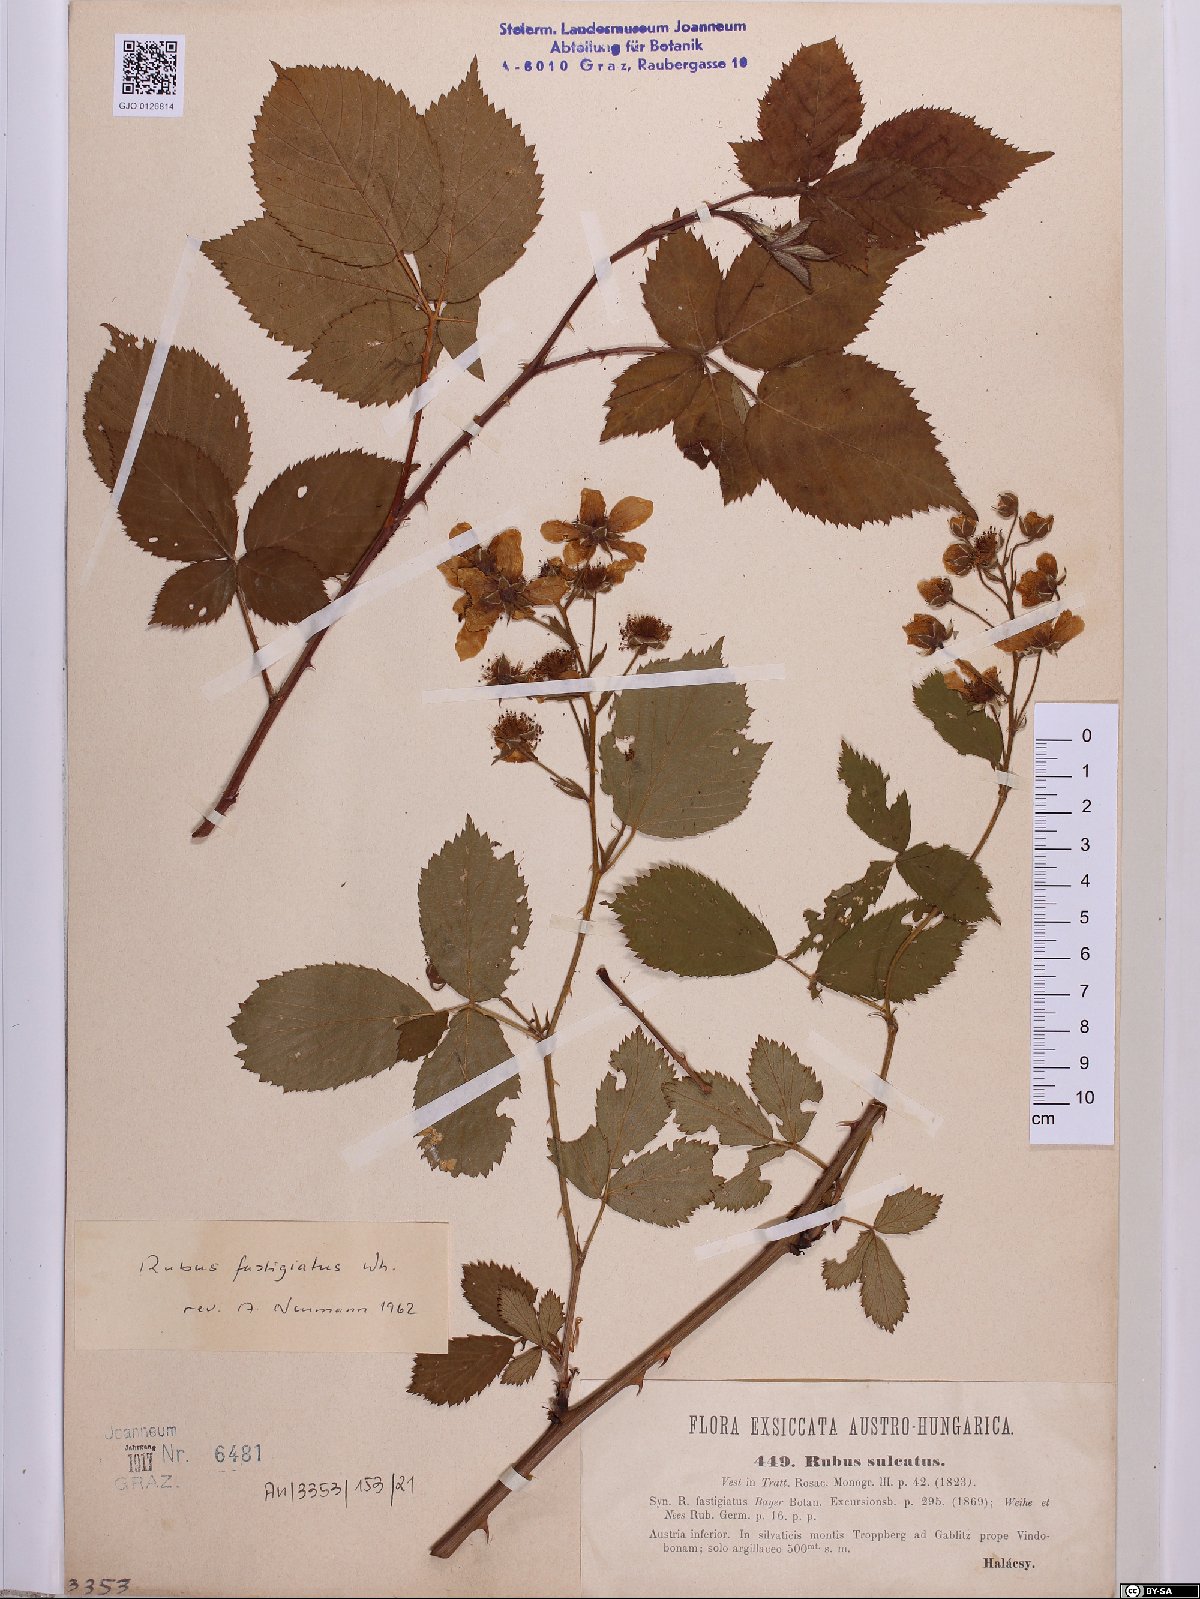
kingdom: Plantae
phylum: Tracheophyta
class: Magnoliopsida
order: Rosales
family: Rosaceae
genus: Rubus
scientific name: Rubus polonicus
